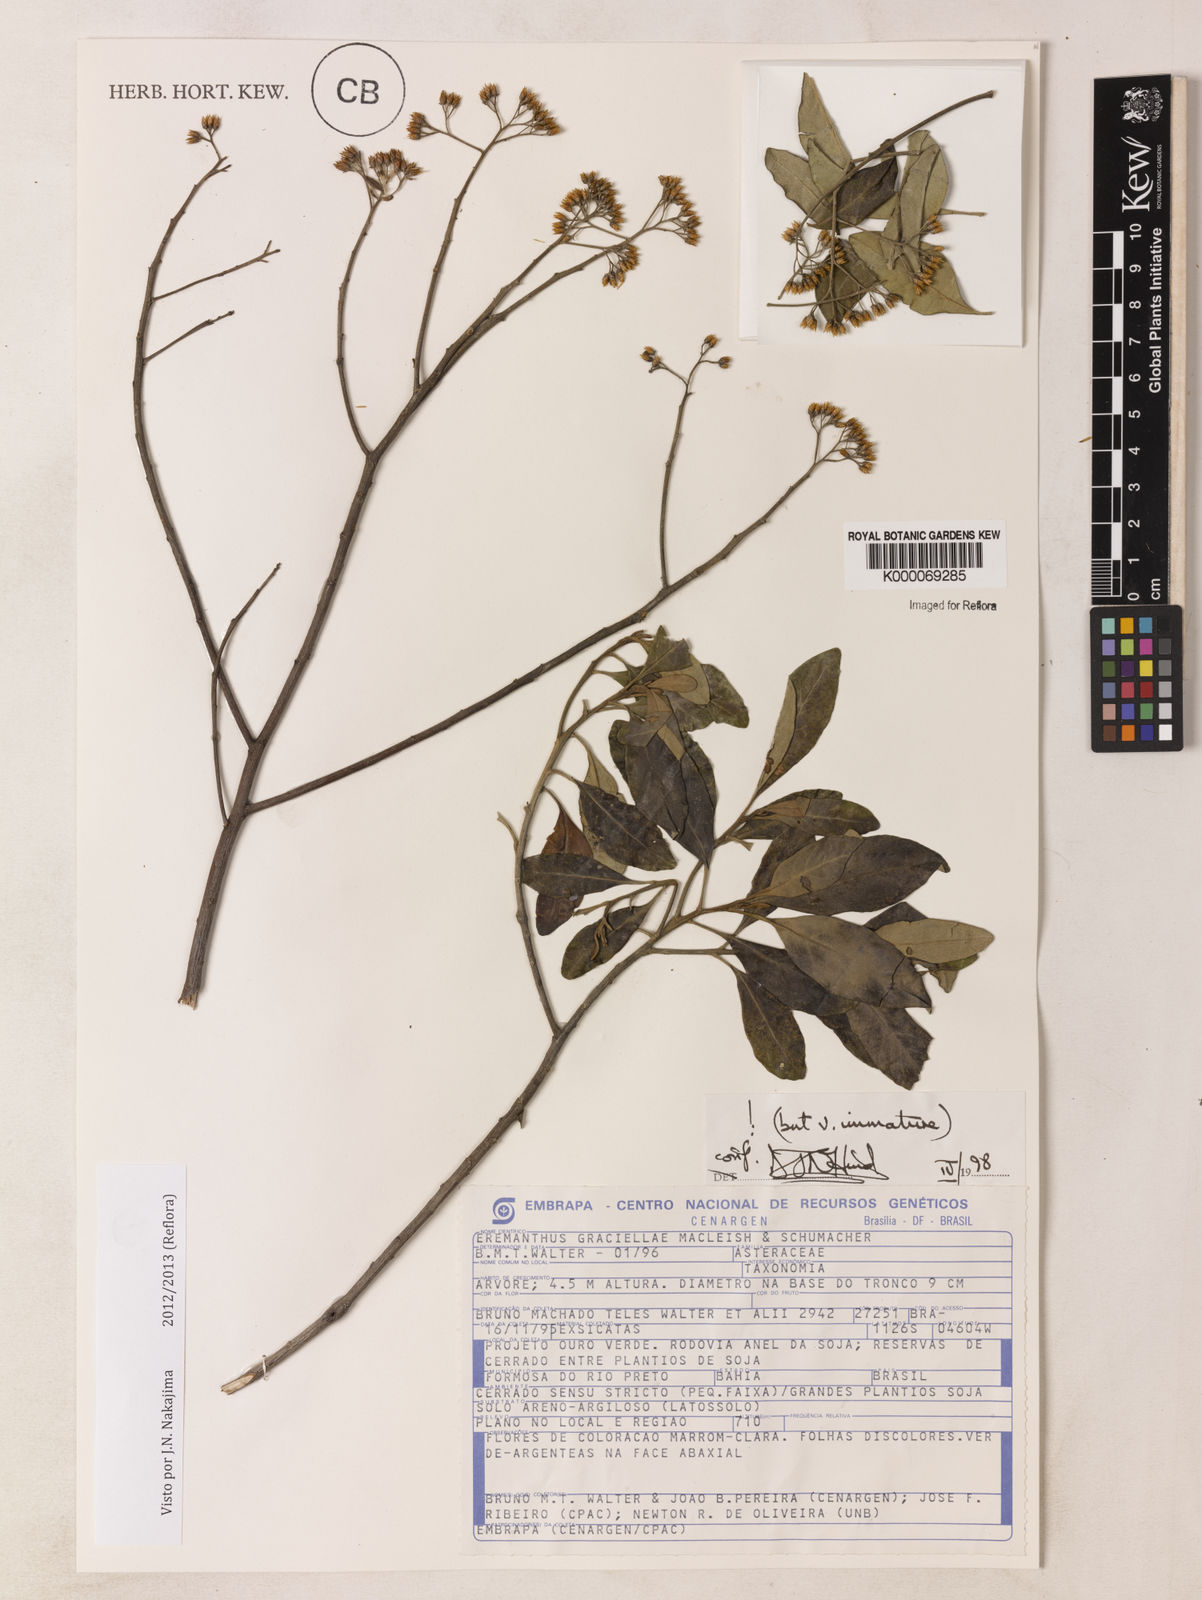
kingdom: Plantae
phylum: Tracheophyta
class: Magnoliopsida
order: Asterales
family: Asteraceae
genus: Eremanthus
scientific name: Eremanthus capitatus
